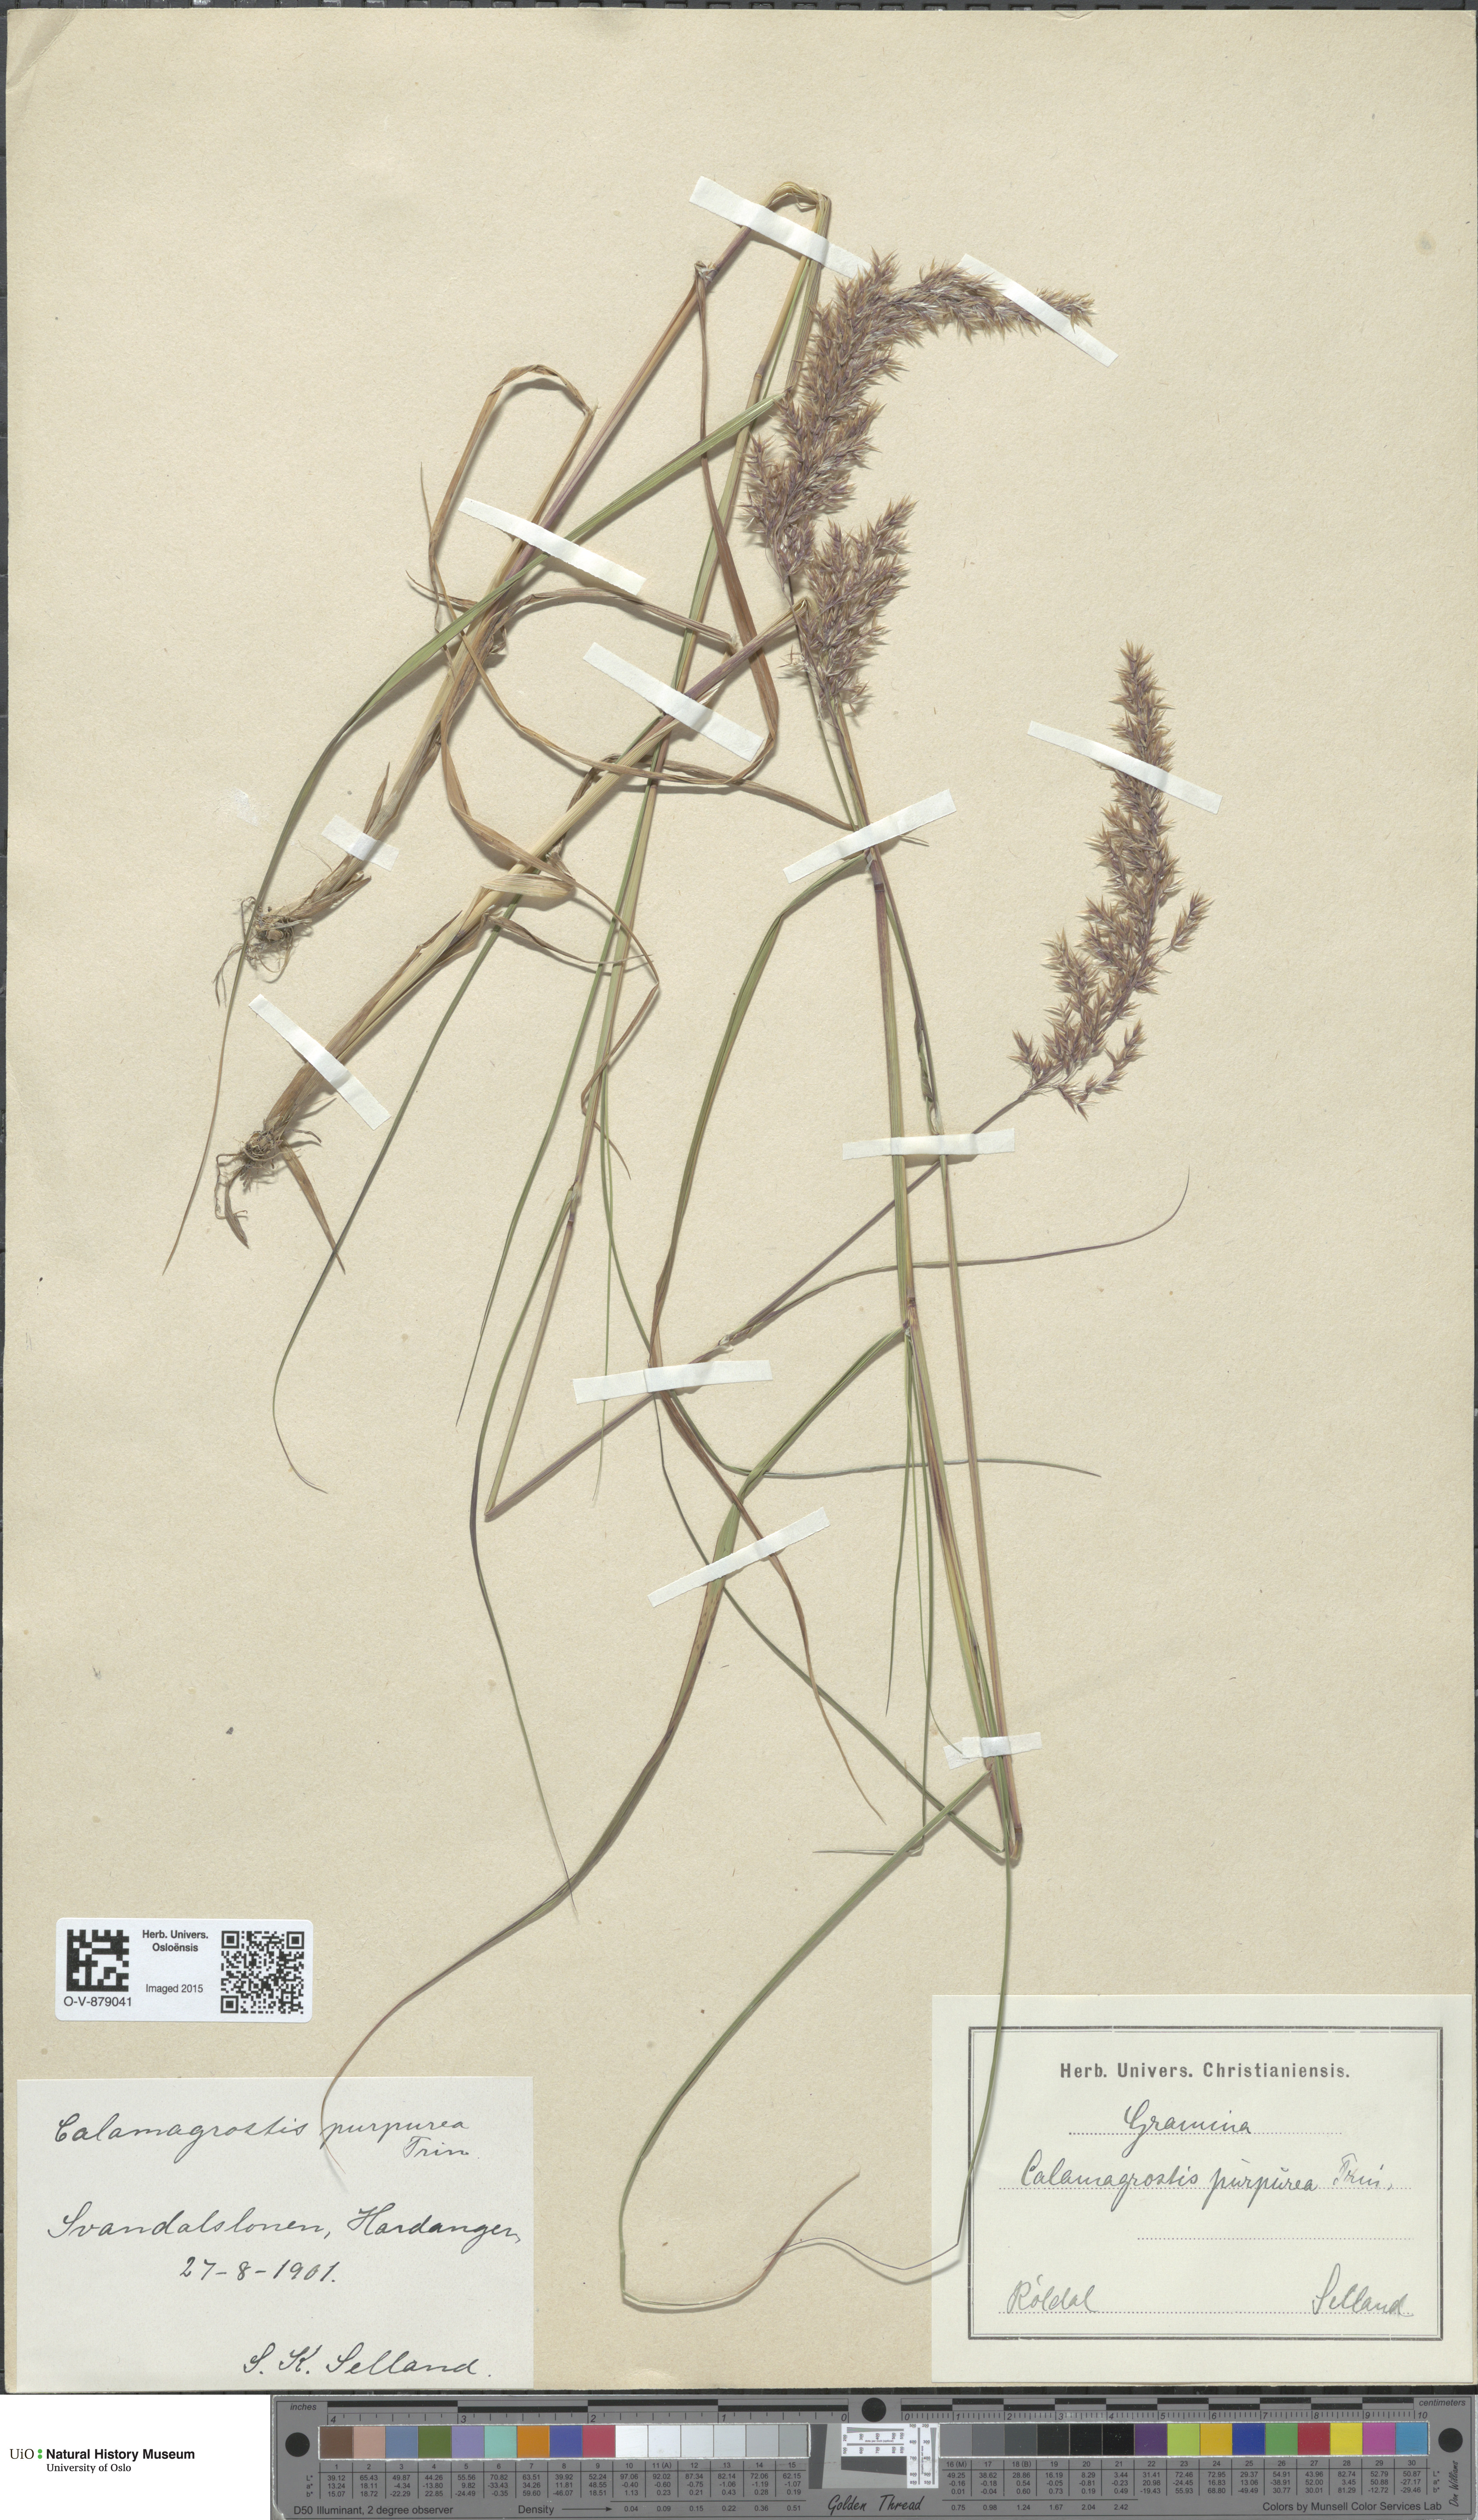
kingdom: Plantae
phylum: Tracheophyta
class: Liliopsida
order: Poales
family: Poaceae
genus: Calamagrostis
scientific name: Calamagrostis purpurea
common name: Scandinavian small-reed
